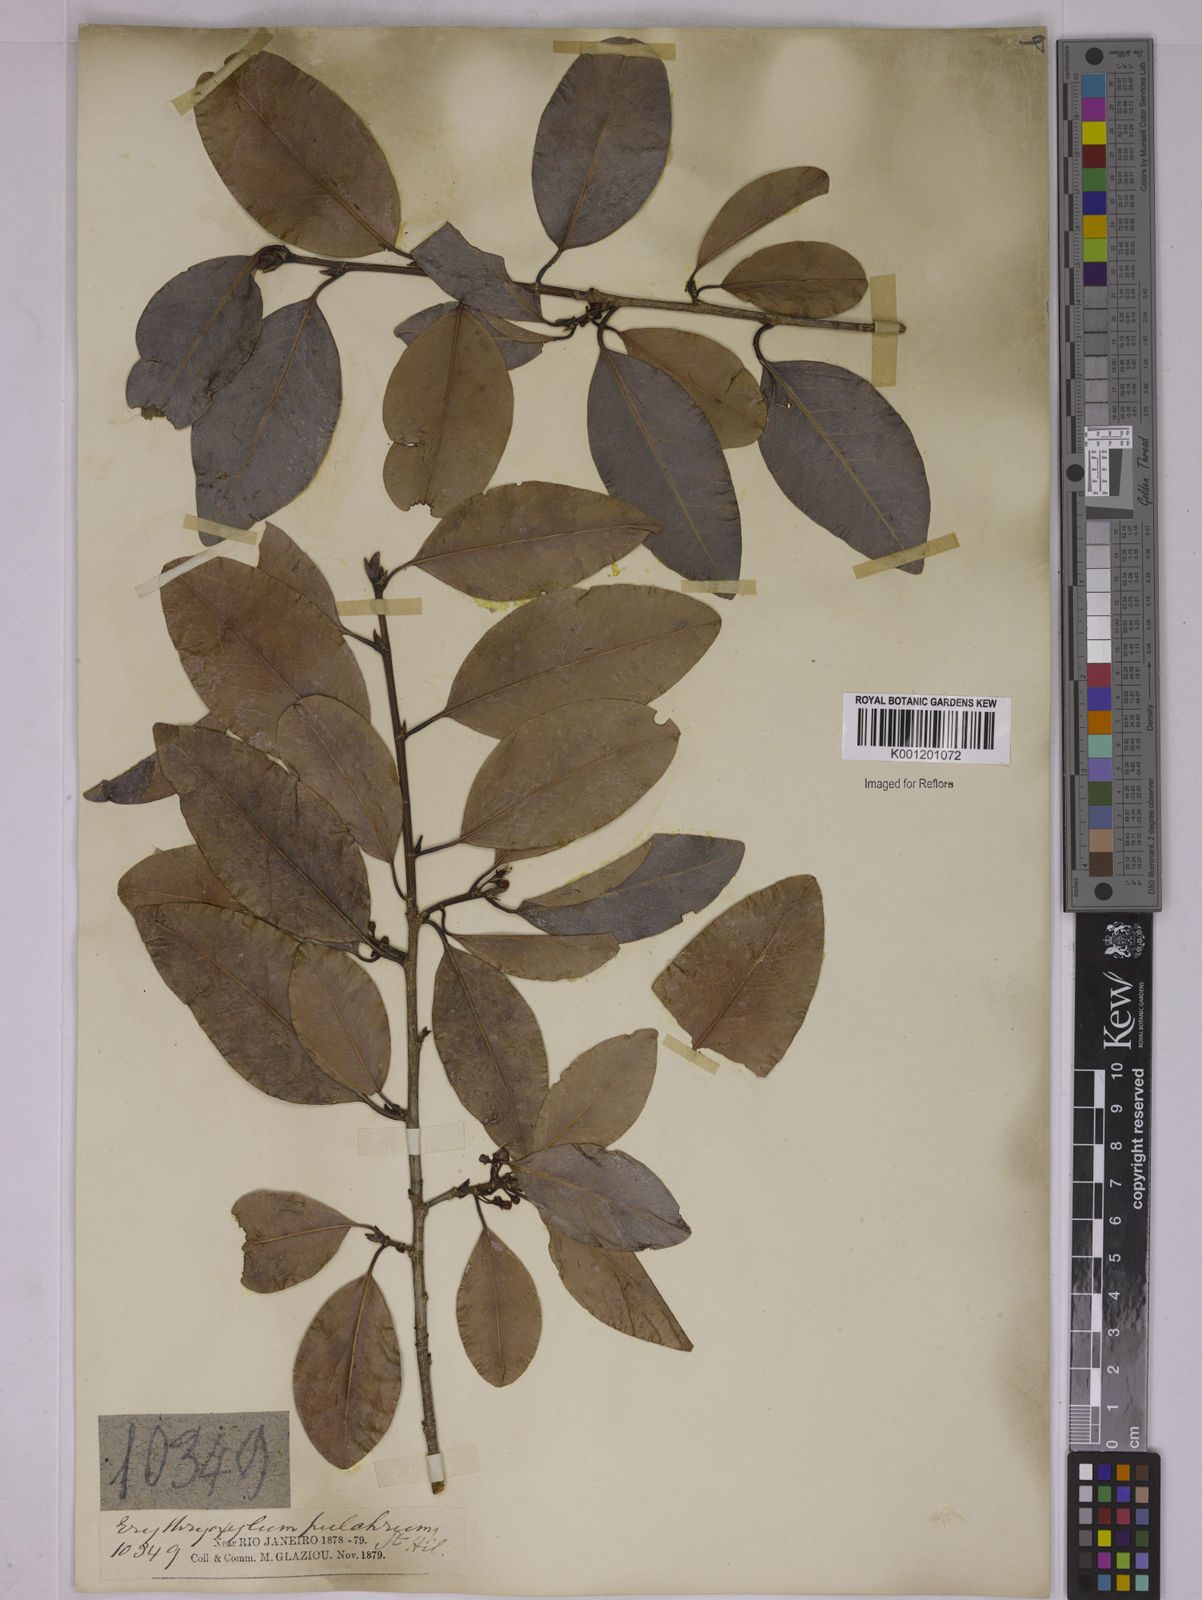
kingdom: Plantae
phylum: Tracheophyta
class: Magnoliopsida
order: Malpighiales
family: Erythroxylaceae
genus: Erythroxylum
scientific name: Erythroxylum pulchrum
